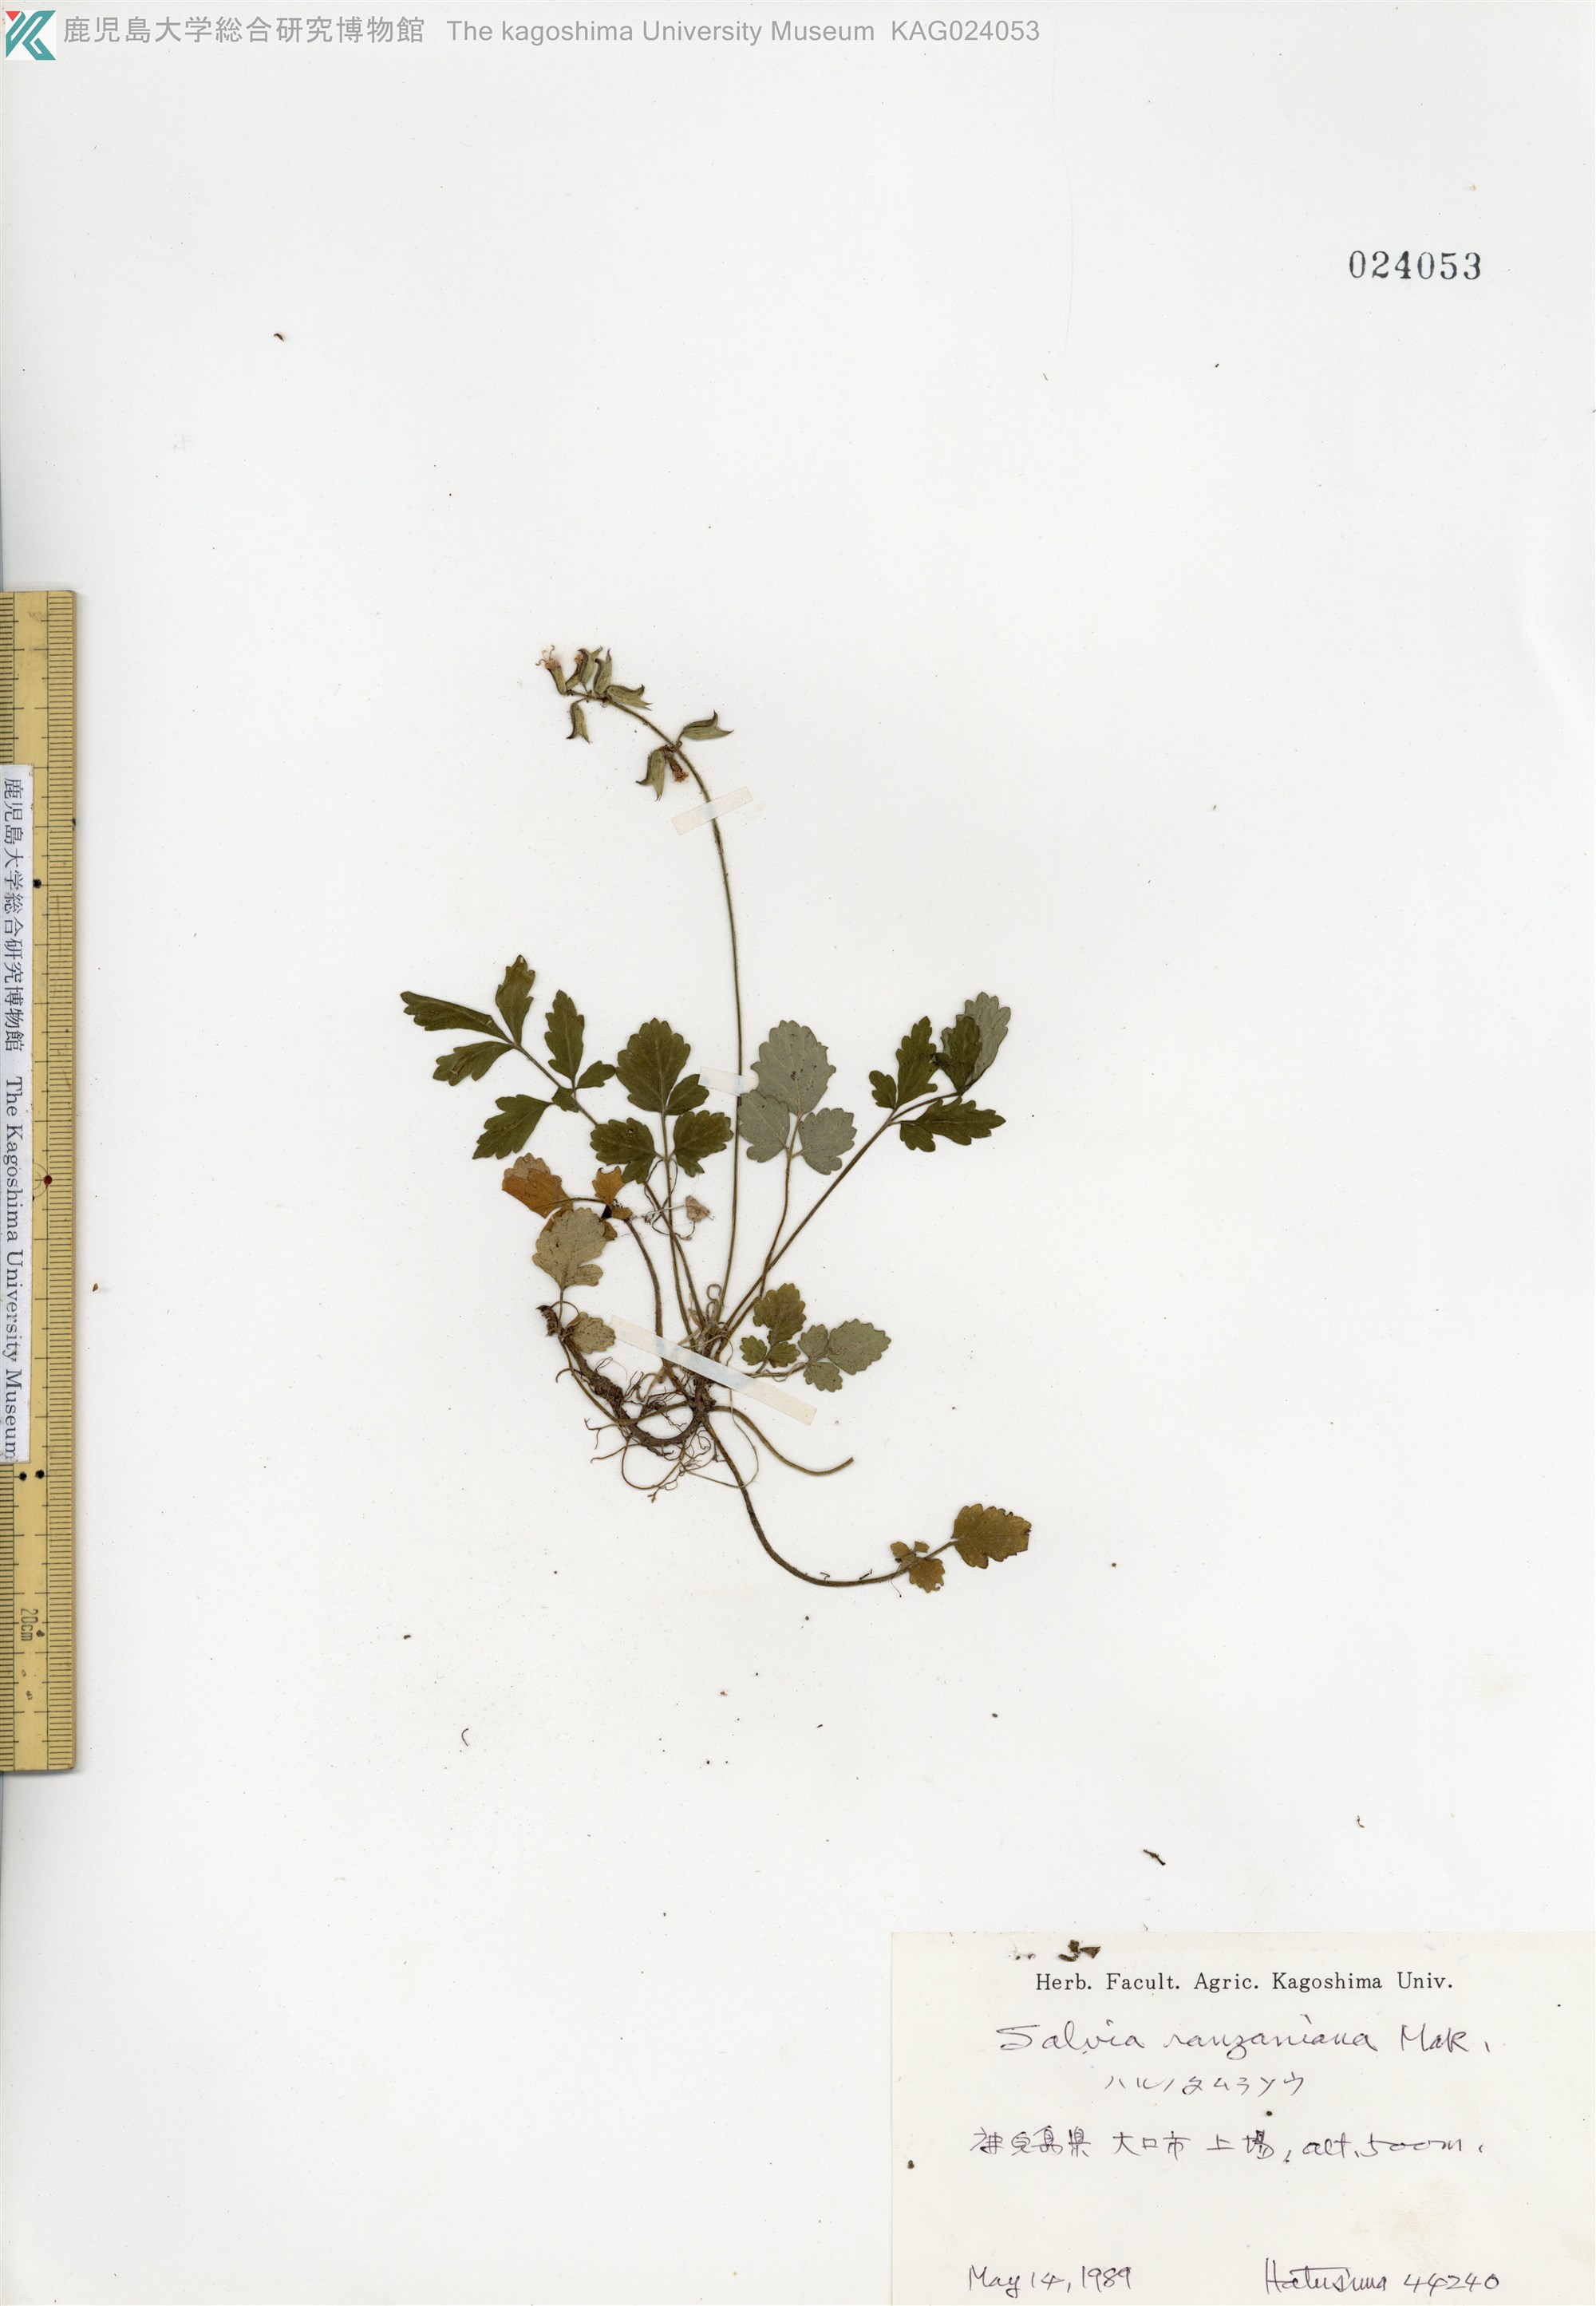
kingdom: Plantae
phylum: Tracheophyta
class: Magnoliopsida
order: Lamiales
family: Lamiaceae
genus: Salvia
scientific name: Salvia ranzaniana
